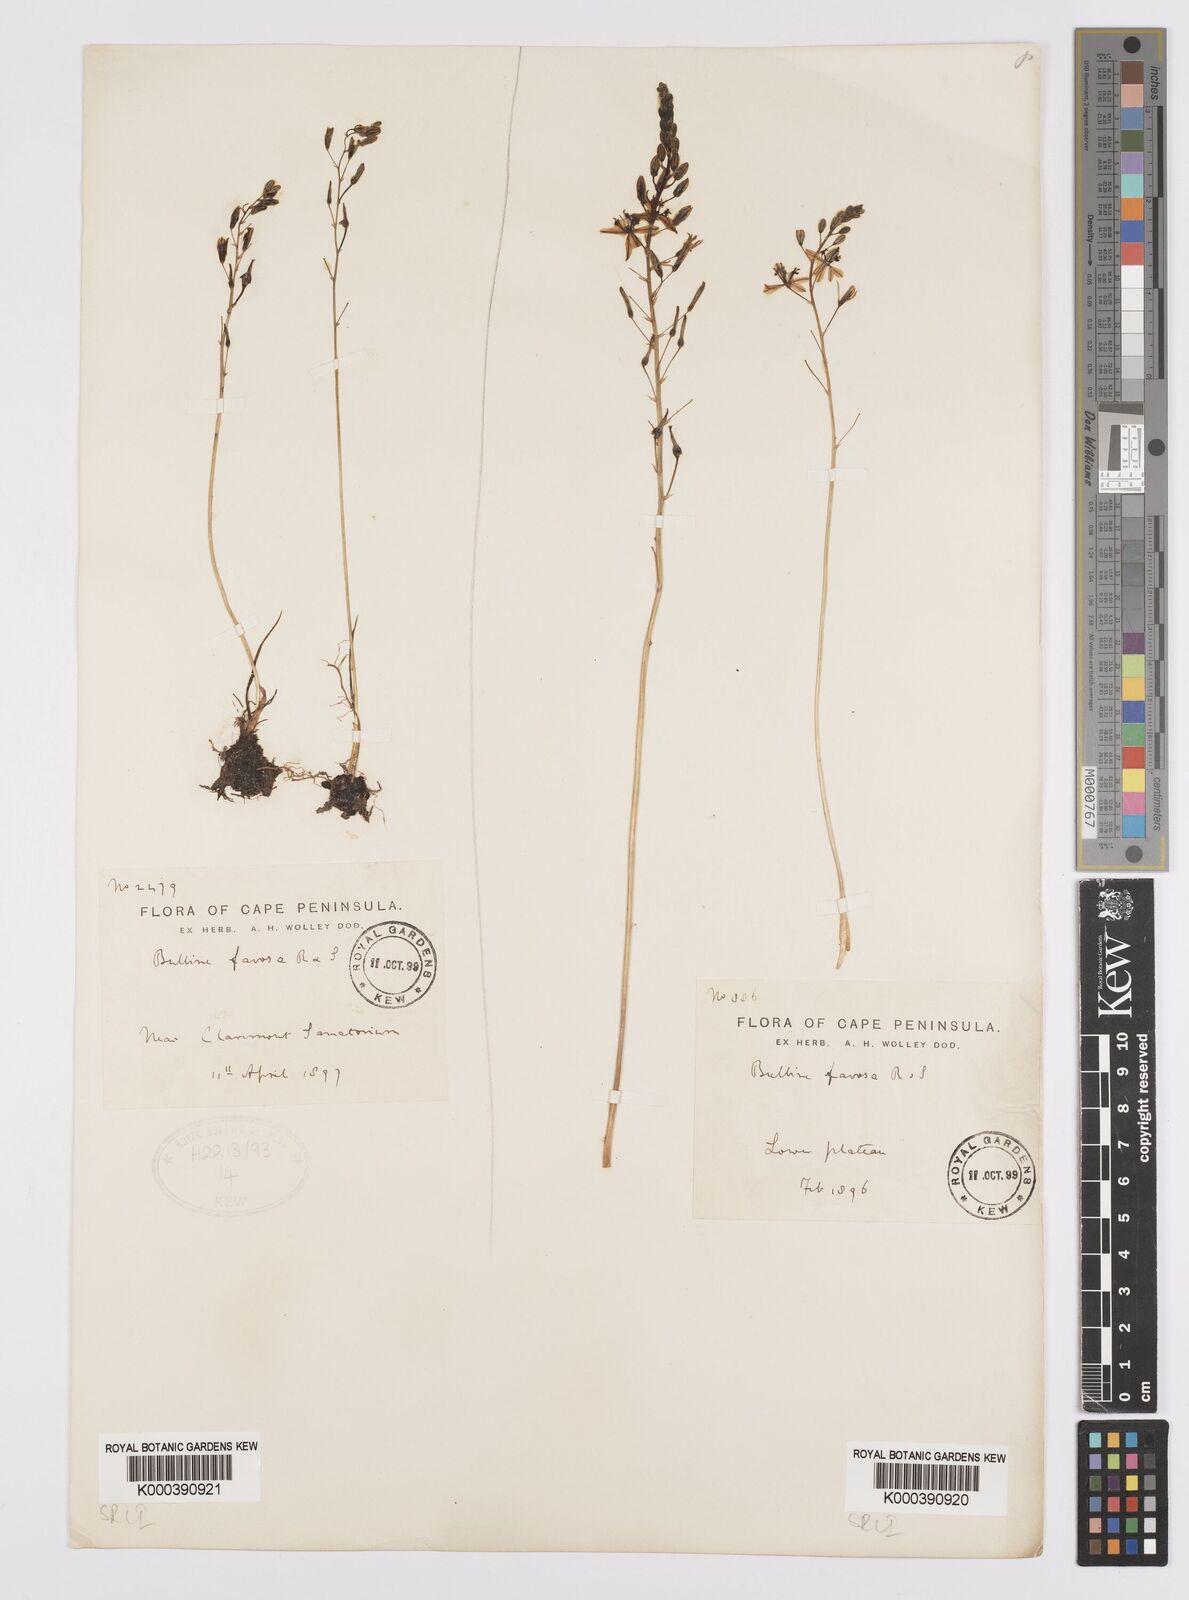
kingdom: Plantae
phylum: Tracheophyta
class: Liliopsida
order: Asparagales
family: Asphodelaceae
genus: Bulbine
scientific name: Bulbine favosa
